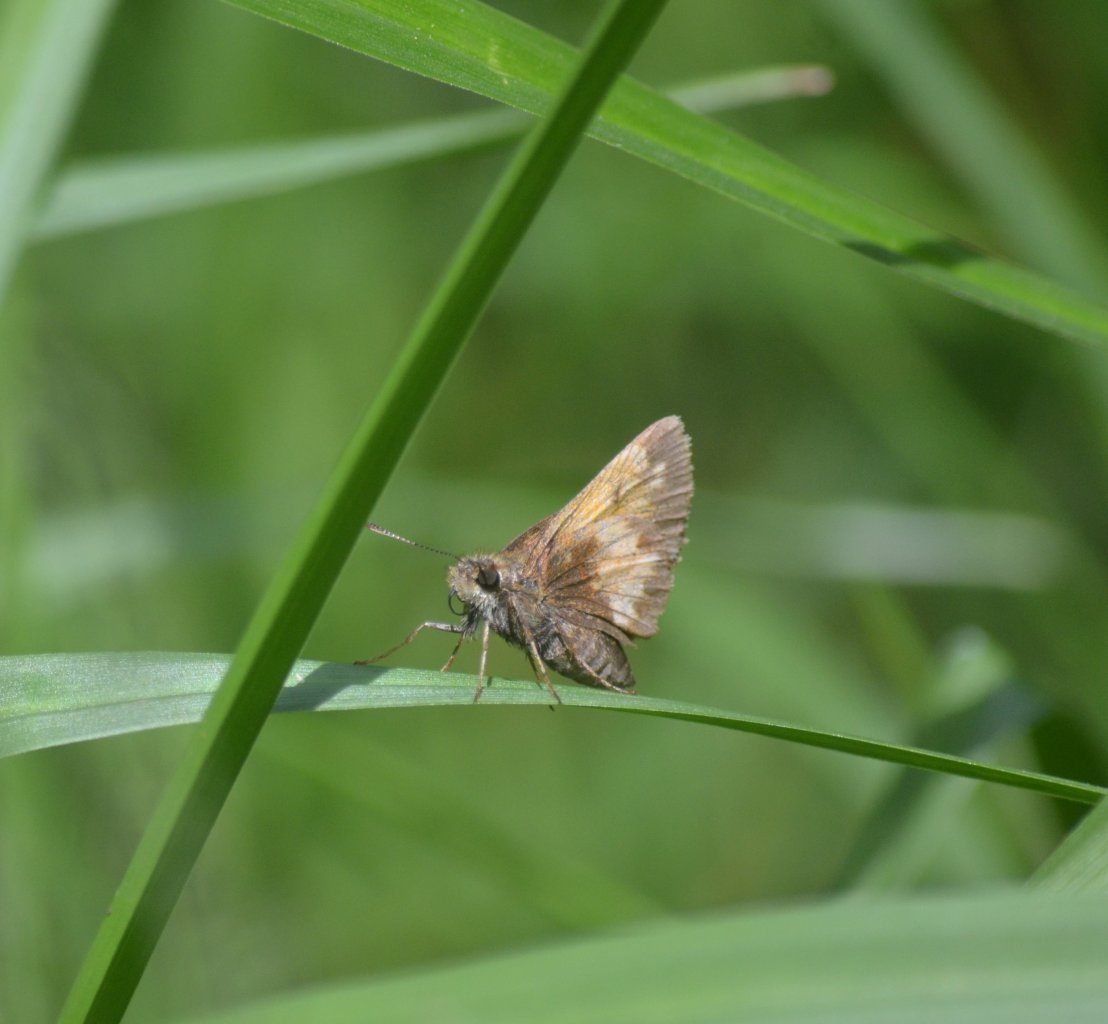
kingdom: Animalia
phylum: Arthropoda
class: Insecta
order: Lepidoptera
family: Hesperiidae
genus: Lon
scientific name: Lon hobomok
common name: Hobomok Skipper
